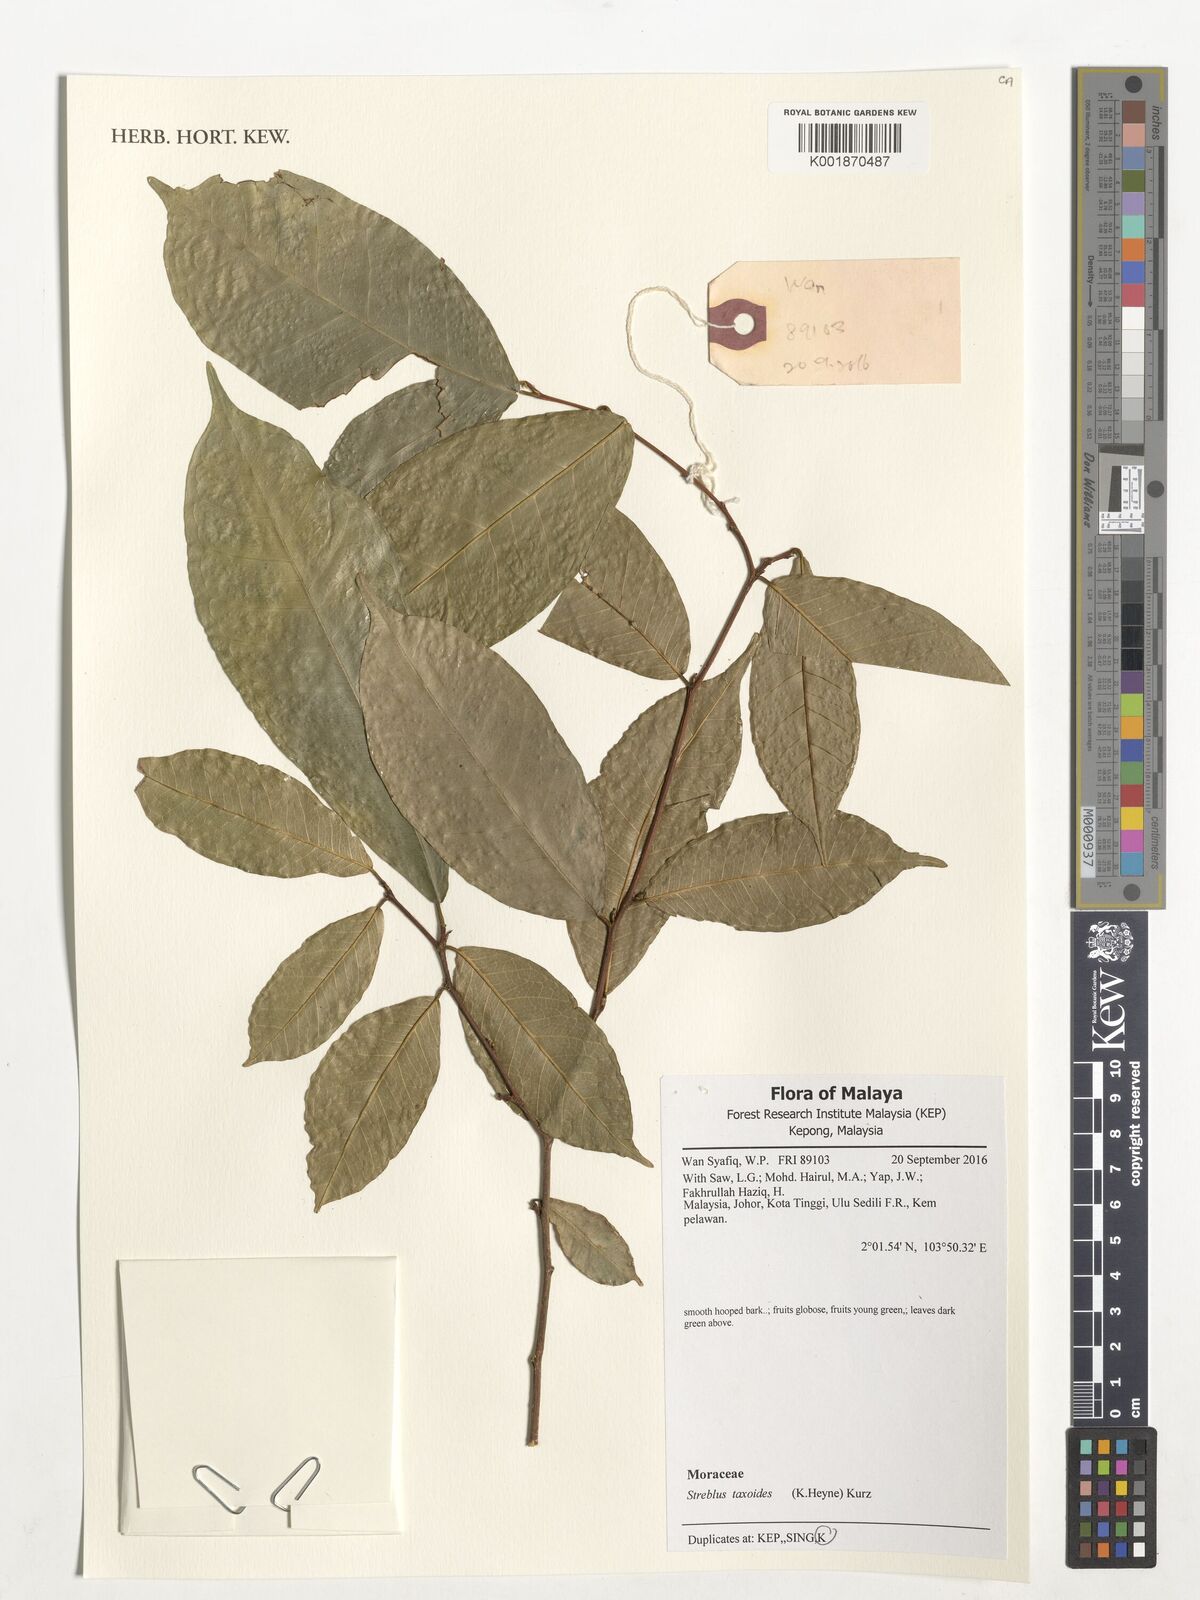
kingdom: Plantae
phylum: Tracheophyta
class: Magnoliopsida
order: Rosales
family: Moraceae
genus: Taxotrophis
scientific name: Taxotrophis taxoides
